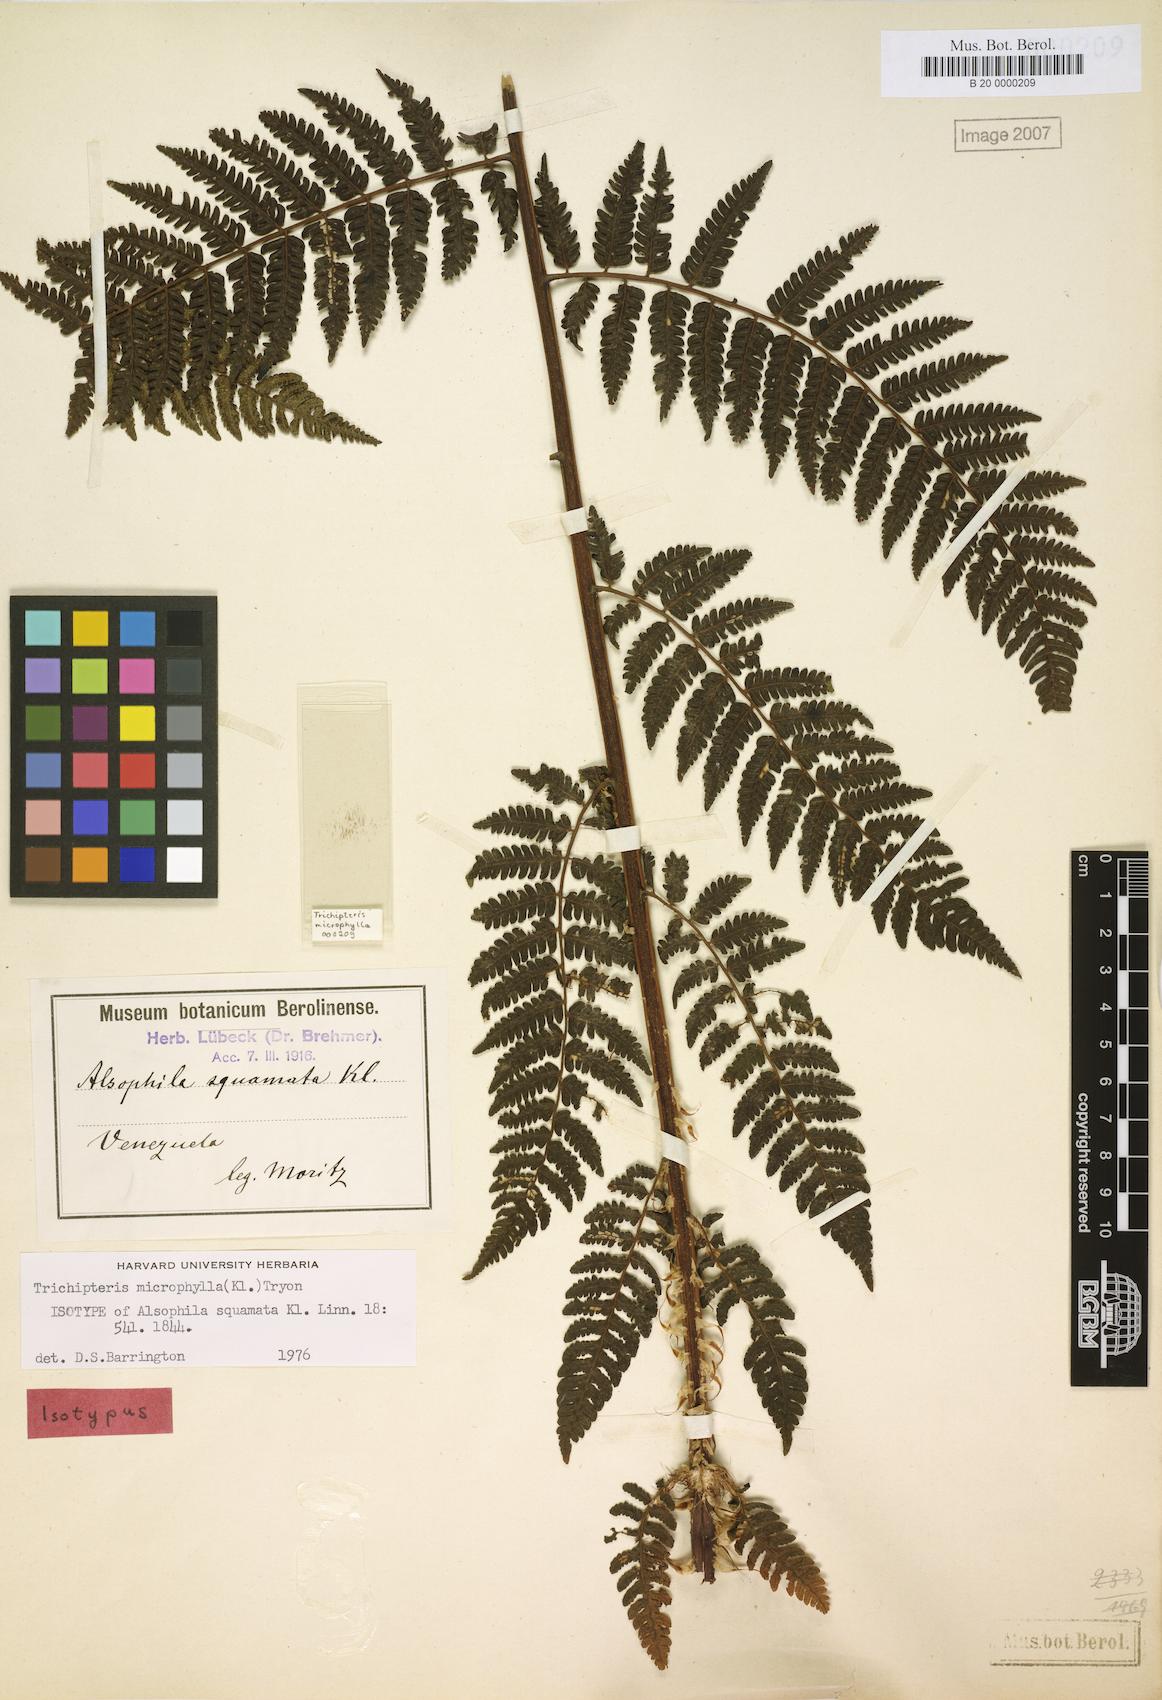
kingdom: Plantae
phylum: Tracheophyta
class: Polypodiopsida
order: Cyatheales
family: Cyatheaceae
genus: Cyathea
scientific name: Cyathea squamata
